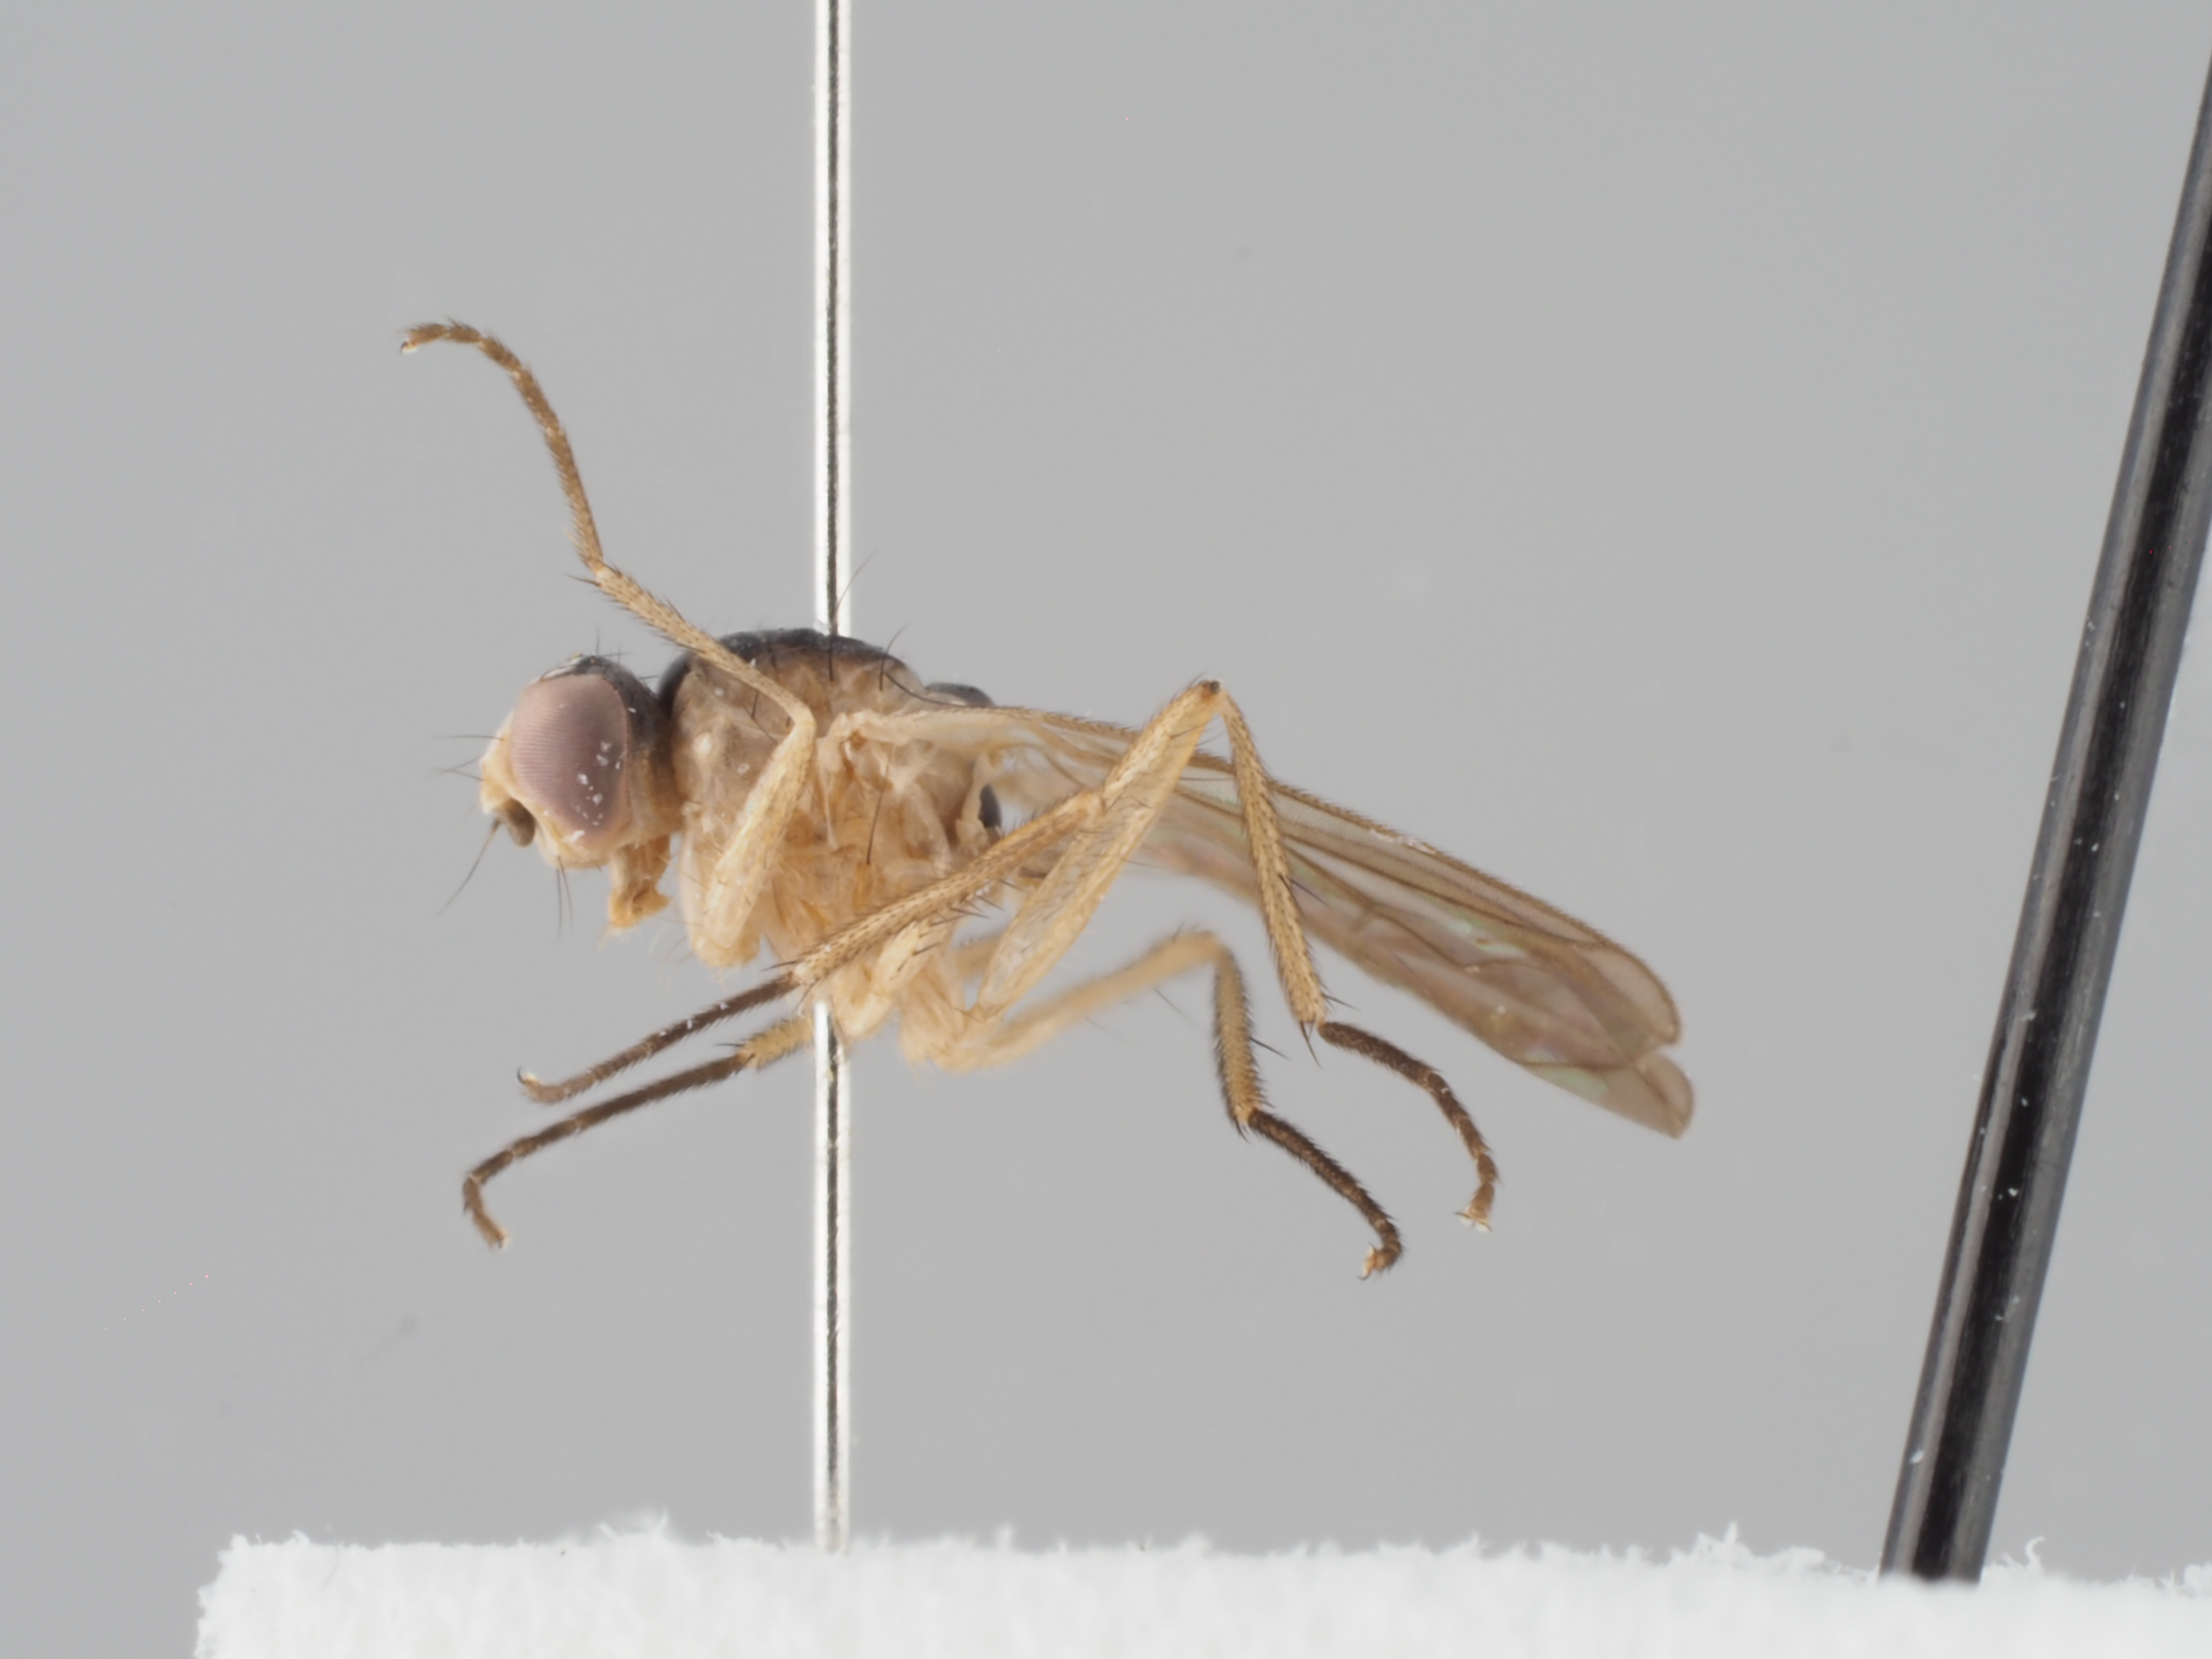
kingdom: Animalia
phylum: Arthropoda
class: Insecta
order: Diptera
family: Scathophagidae
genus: Americina
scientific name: Americina sellata
